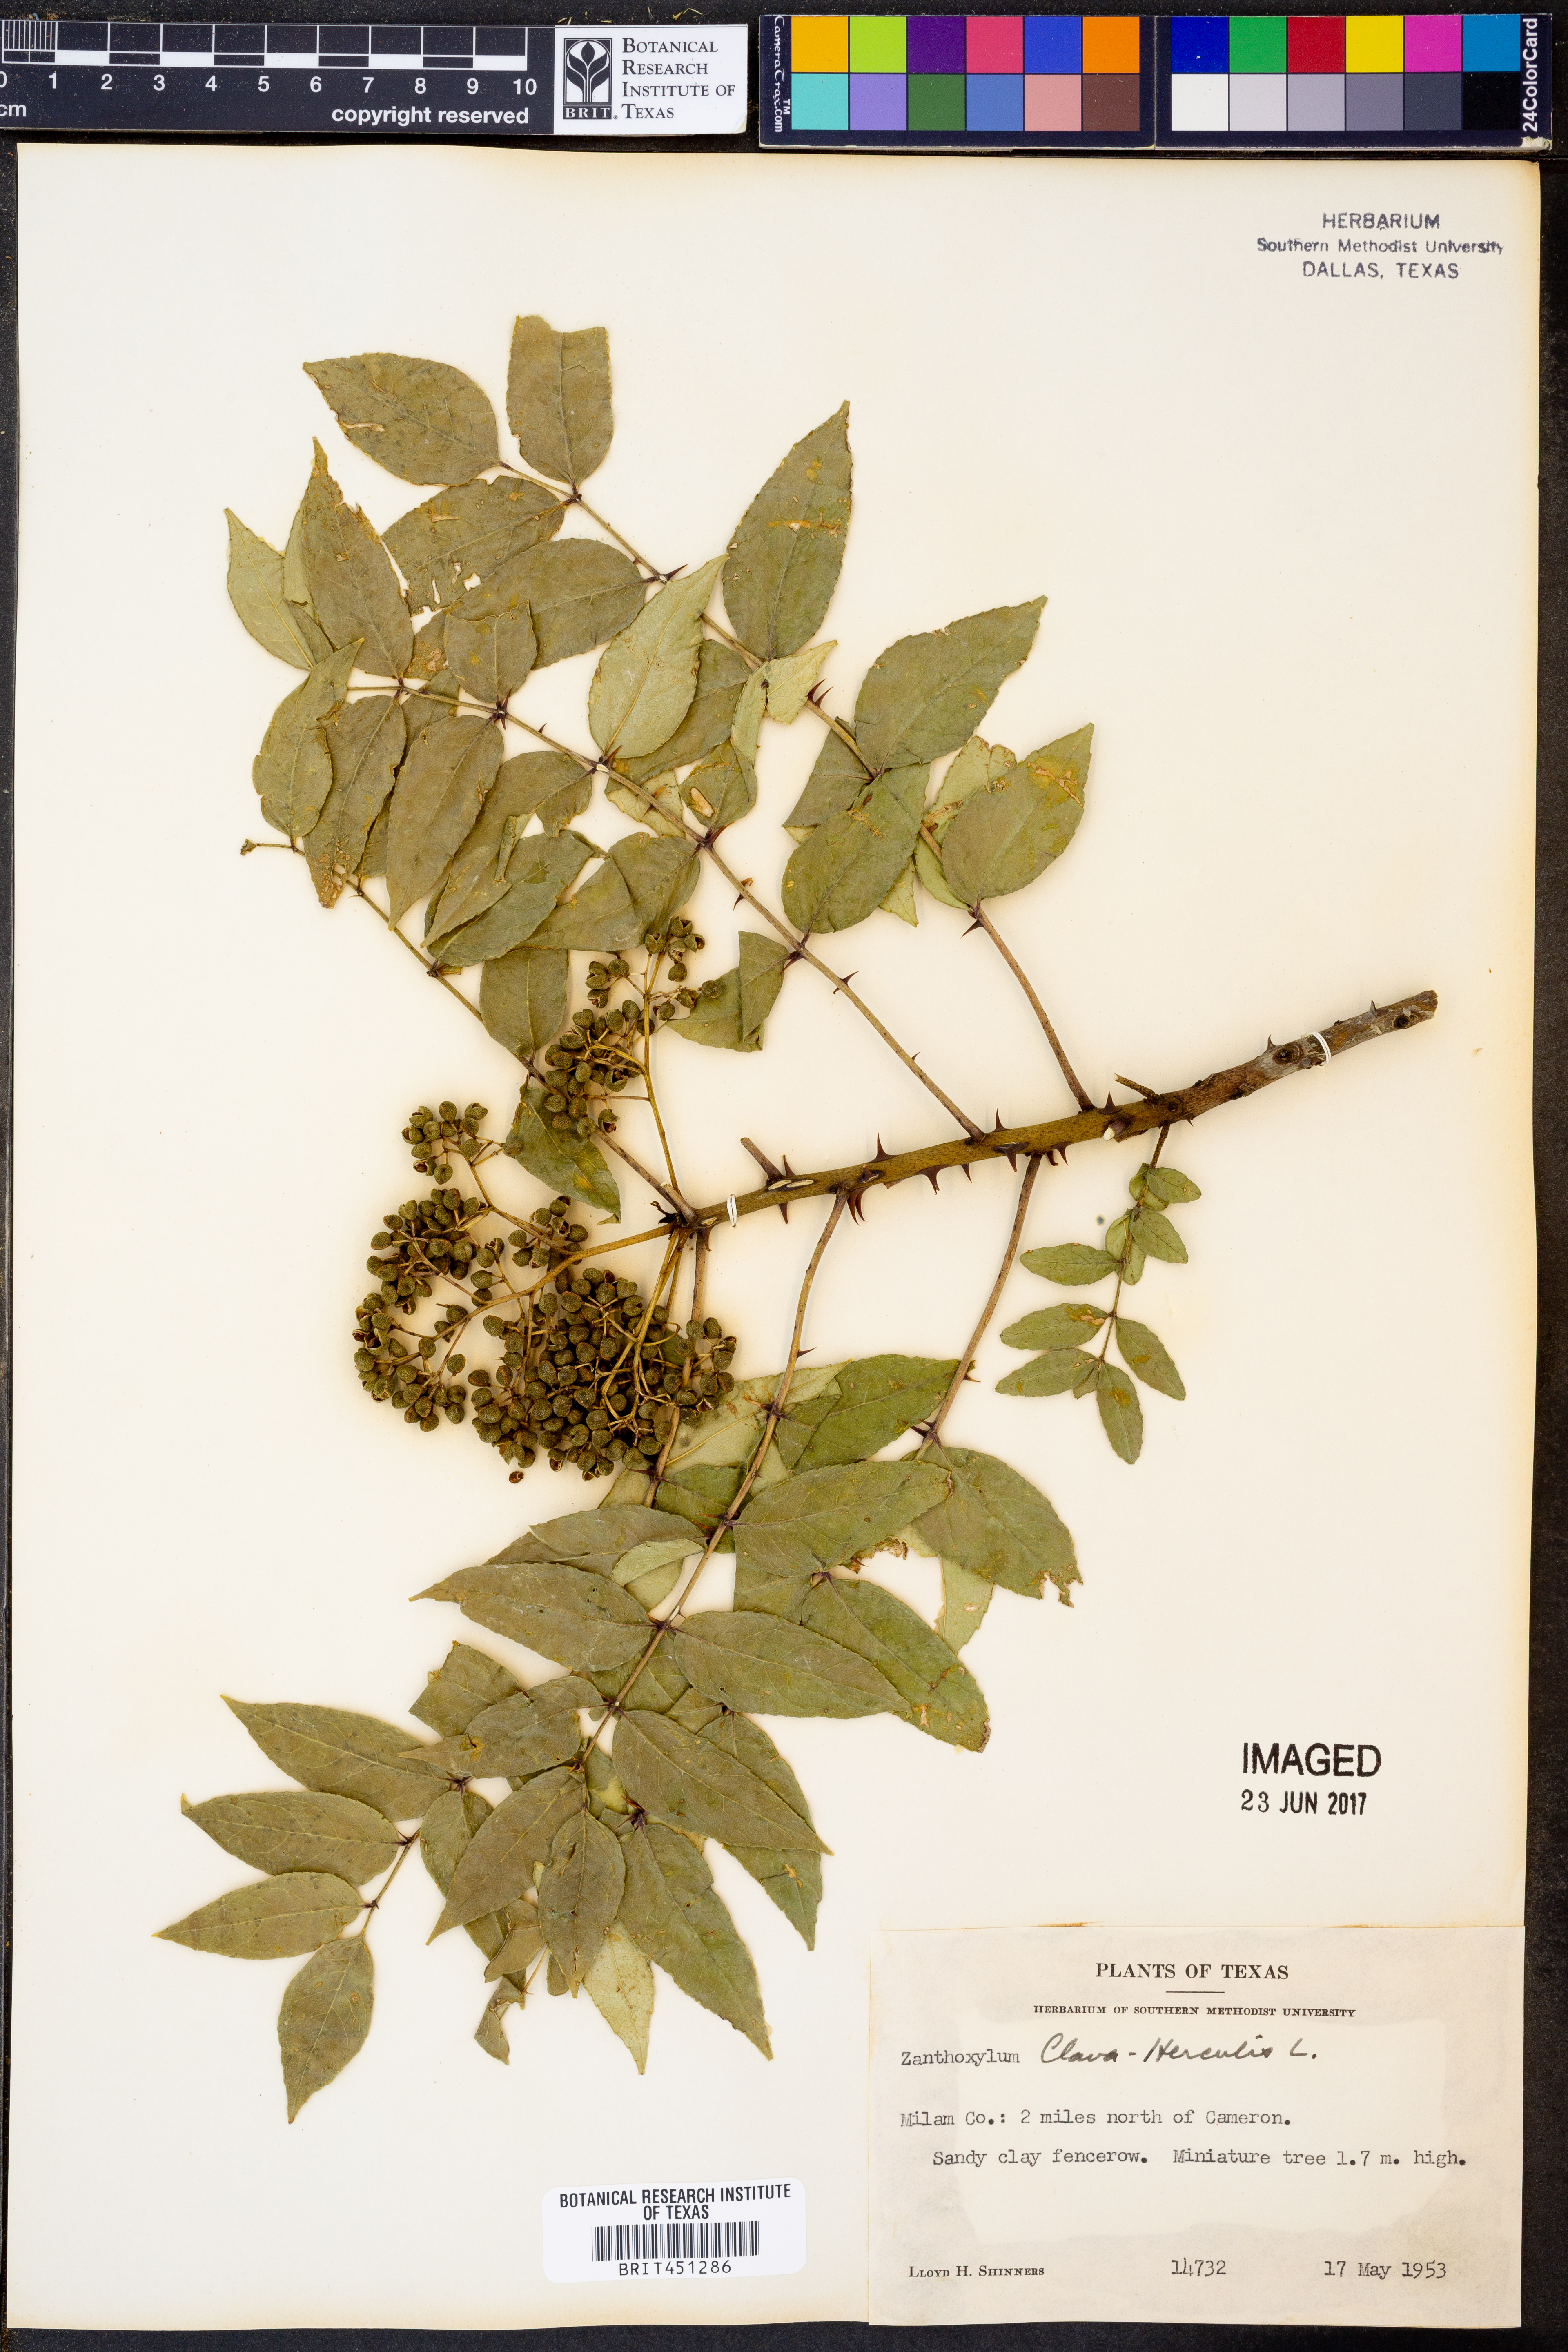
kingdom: Plantae
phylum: Tracheophyta
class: Magnoliopsida
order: Sapindales
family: Rutaceae
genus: Zanthoxylum
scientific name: Zanthoxylum avicennae
